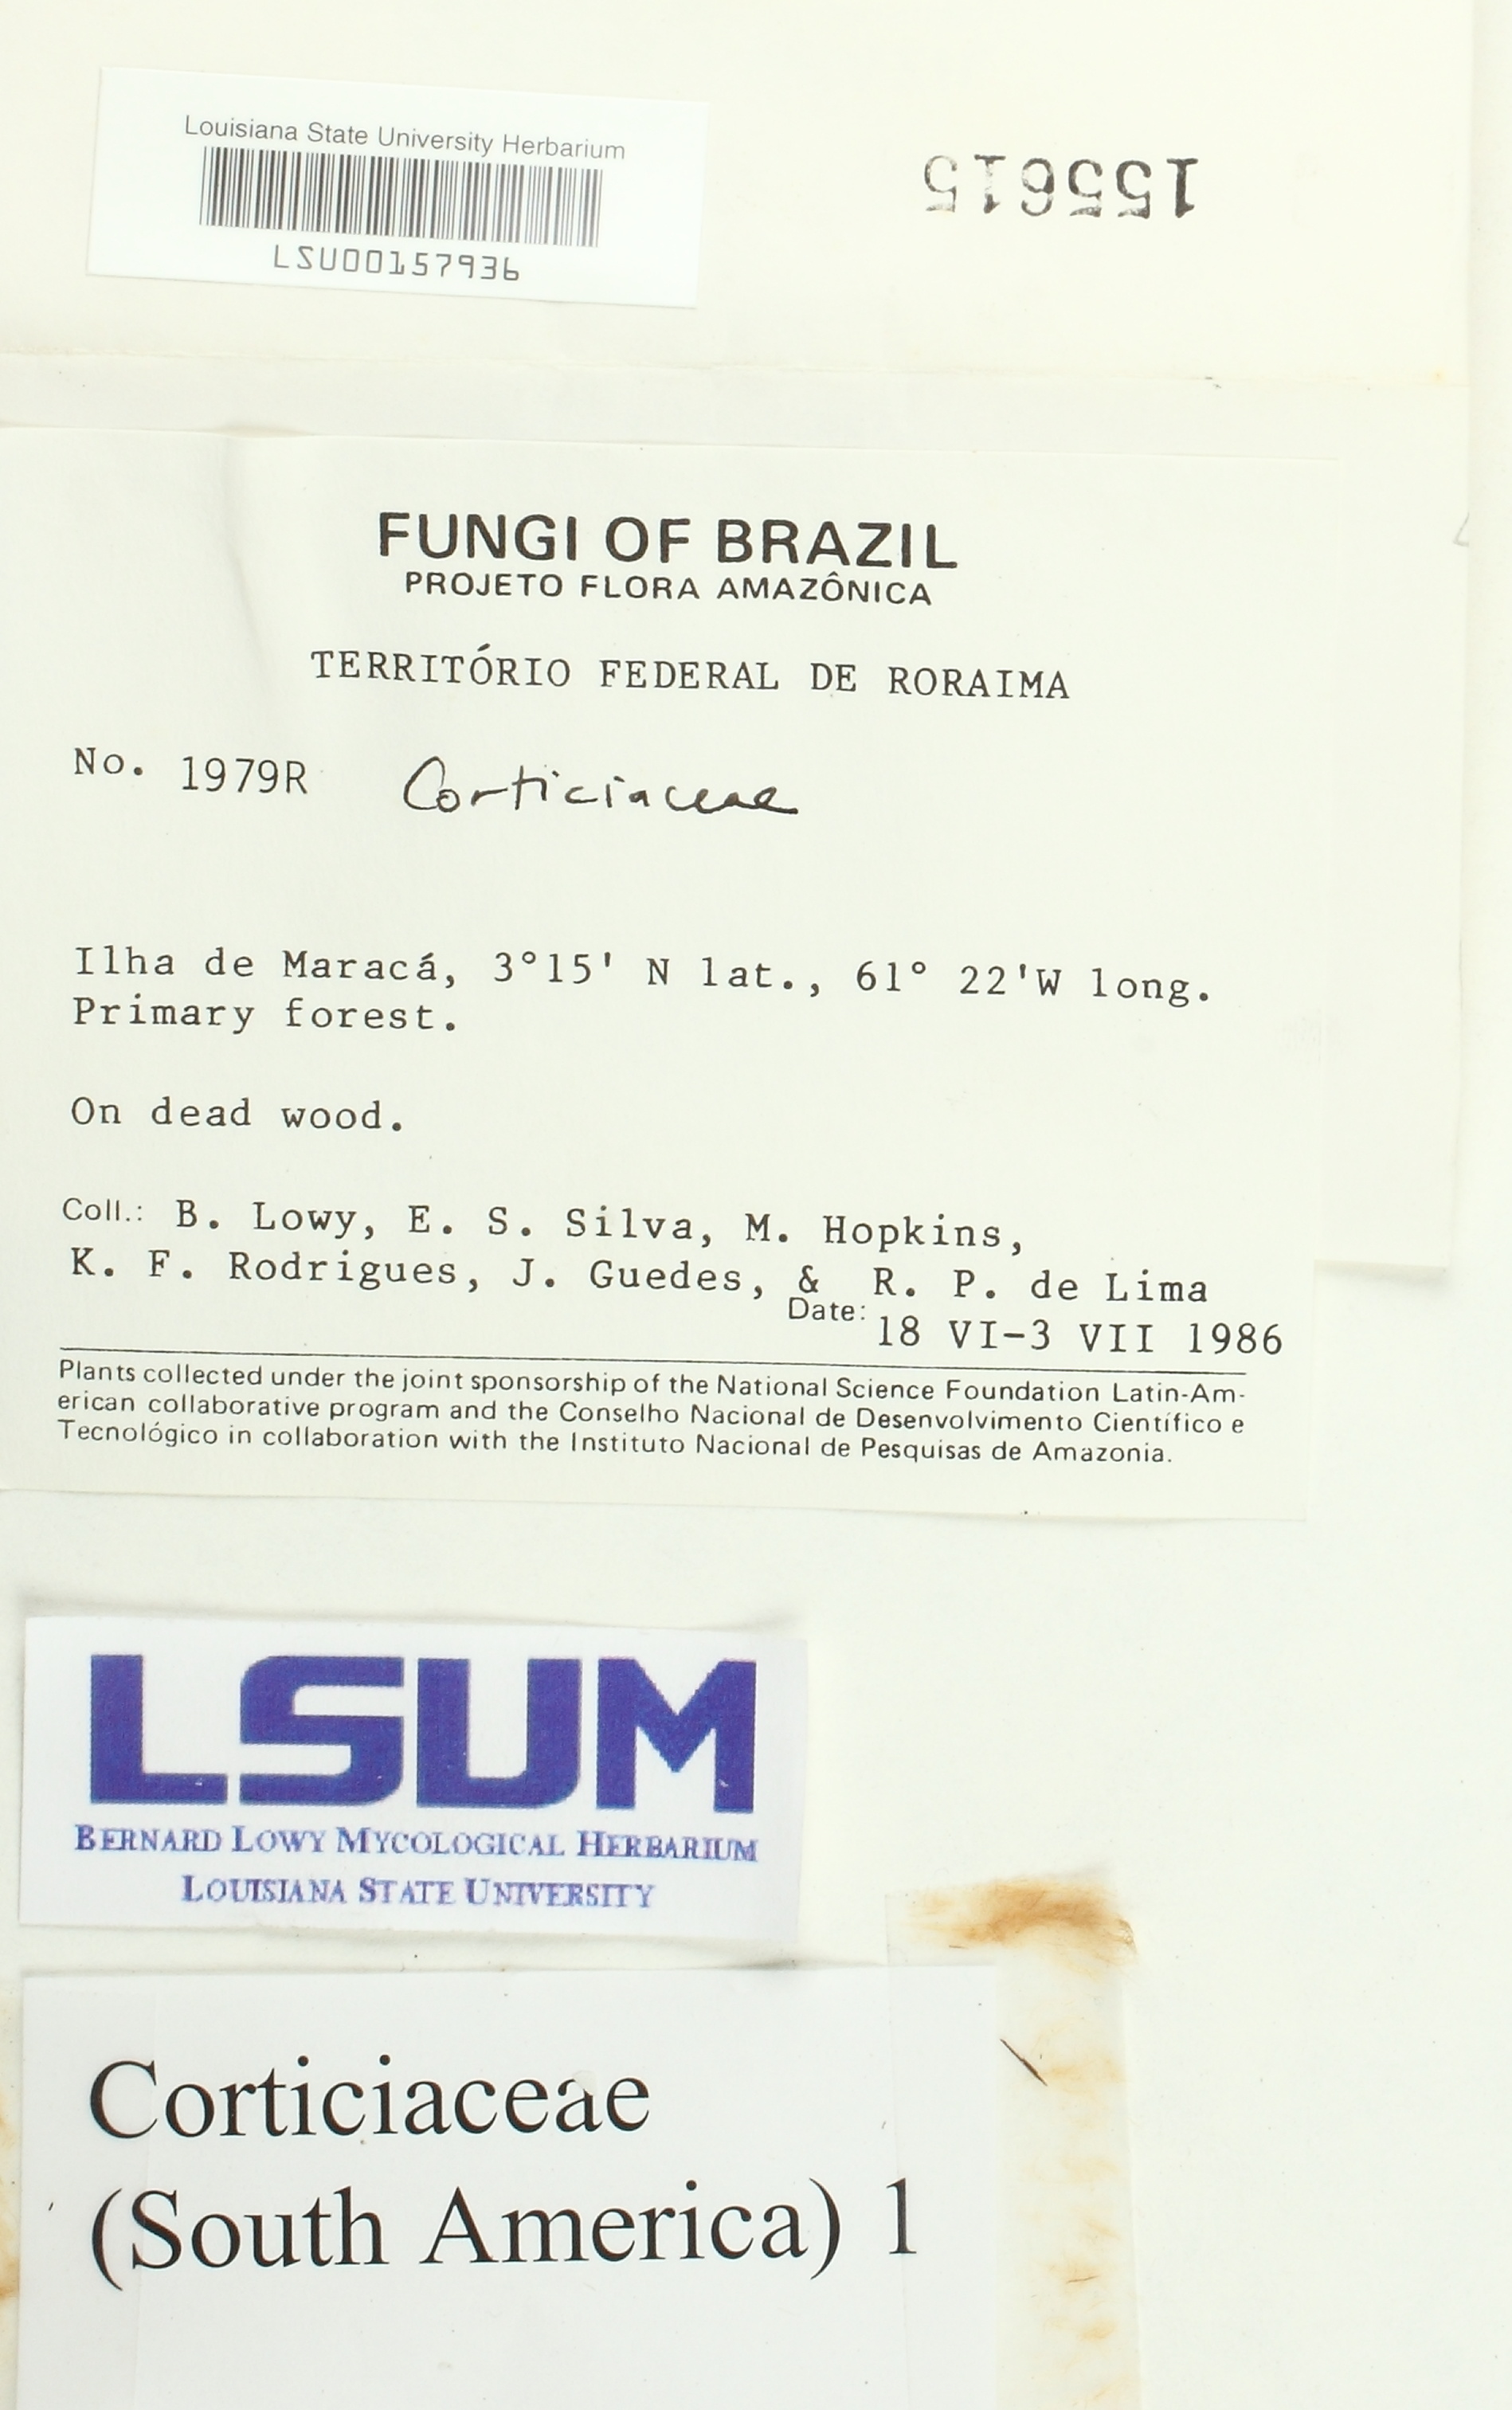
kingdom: Fungi
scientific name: Fungi
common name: Fungi
